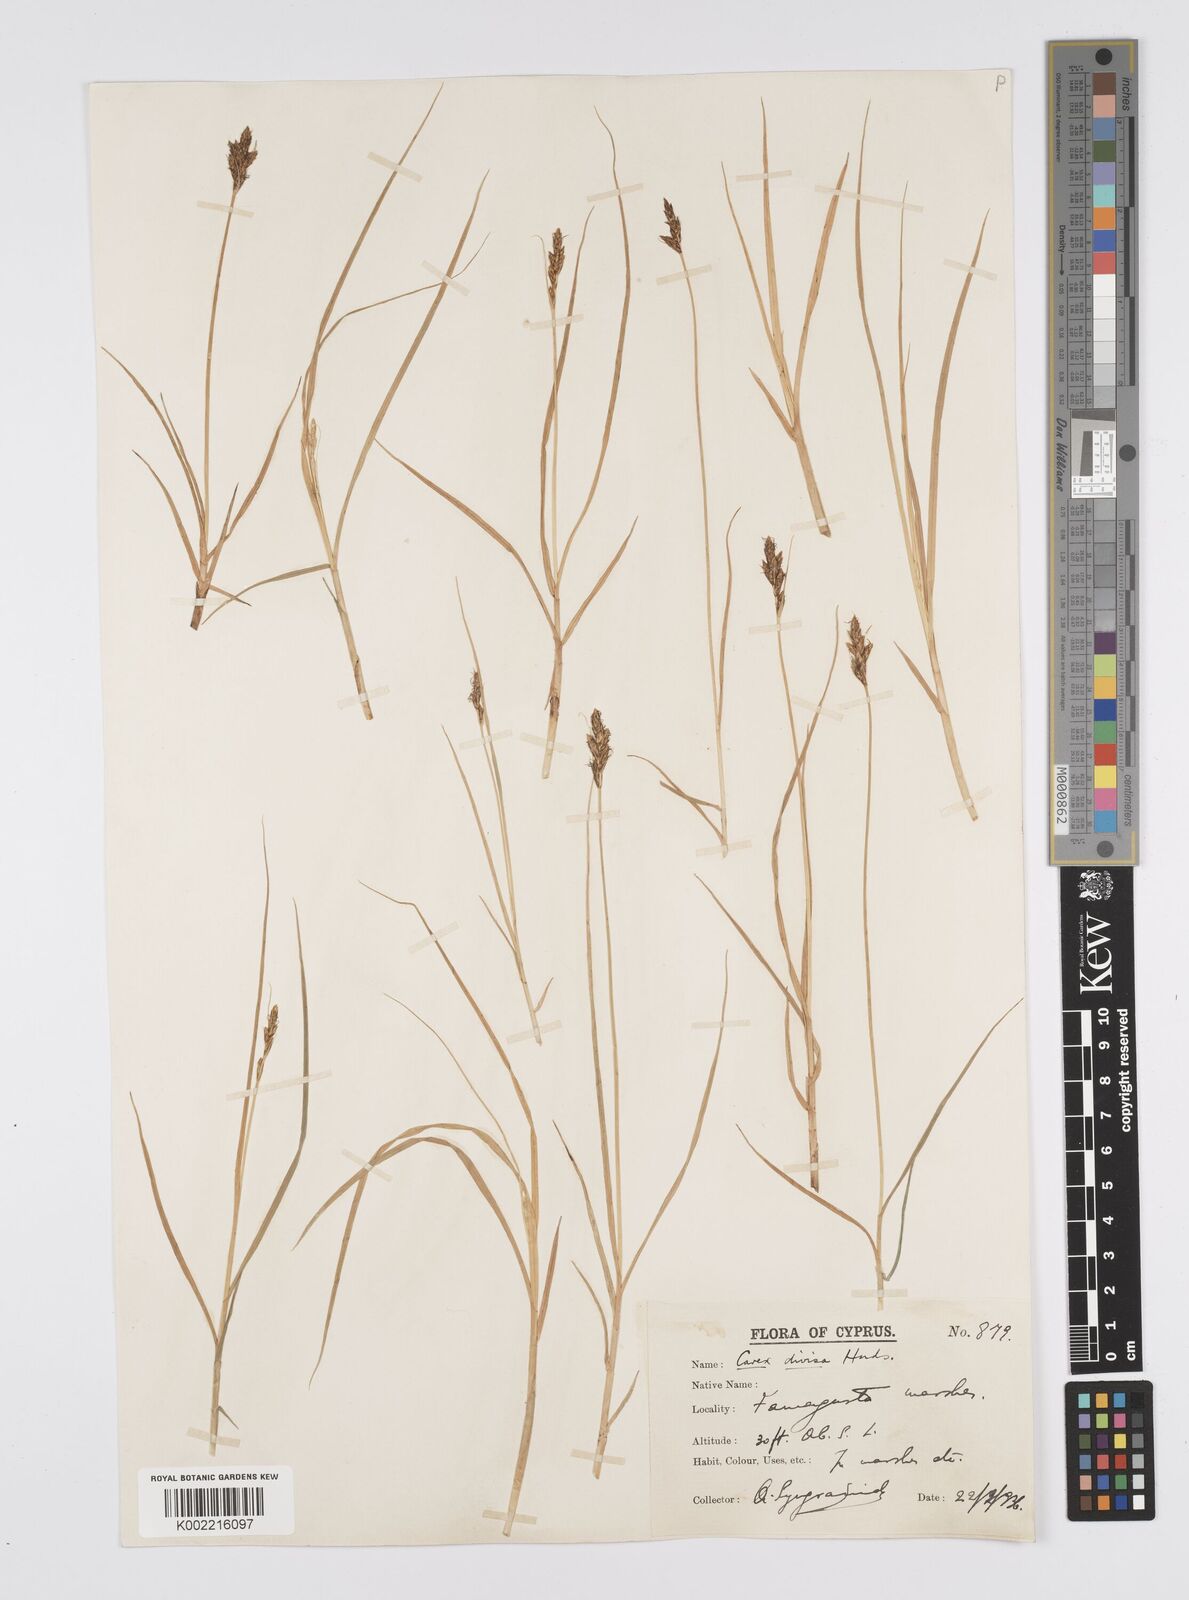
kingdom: Plantae
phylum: Tracheophyta
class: Liliopsida
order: Poales
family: Cyperaceae
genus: Carex
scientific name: Carex divisa
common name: Divided sedge
